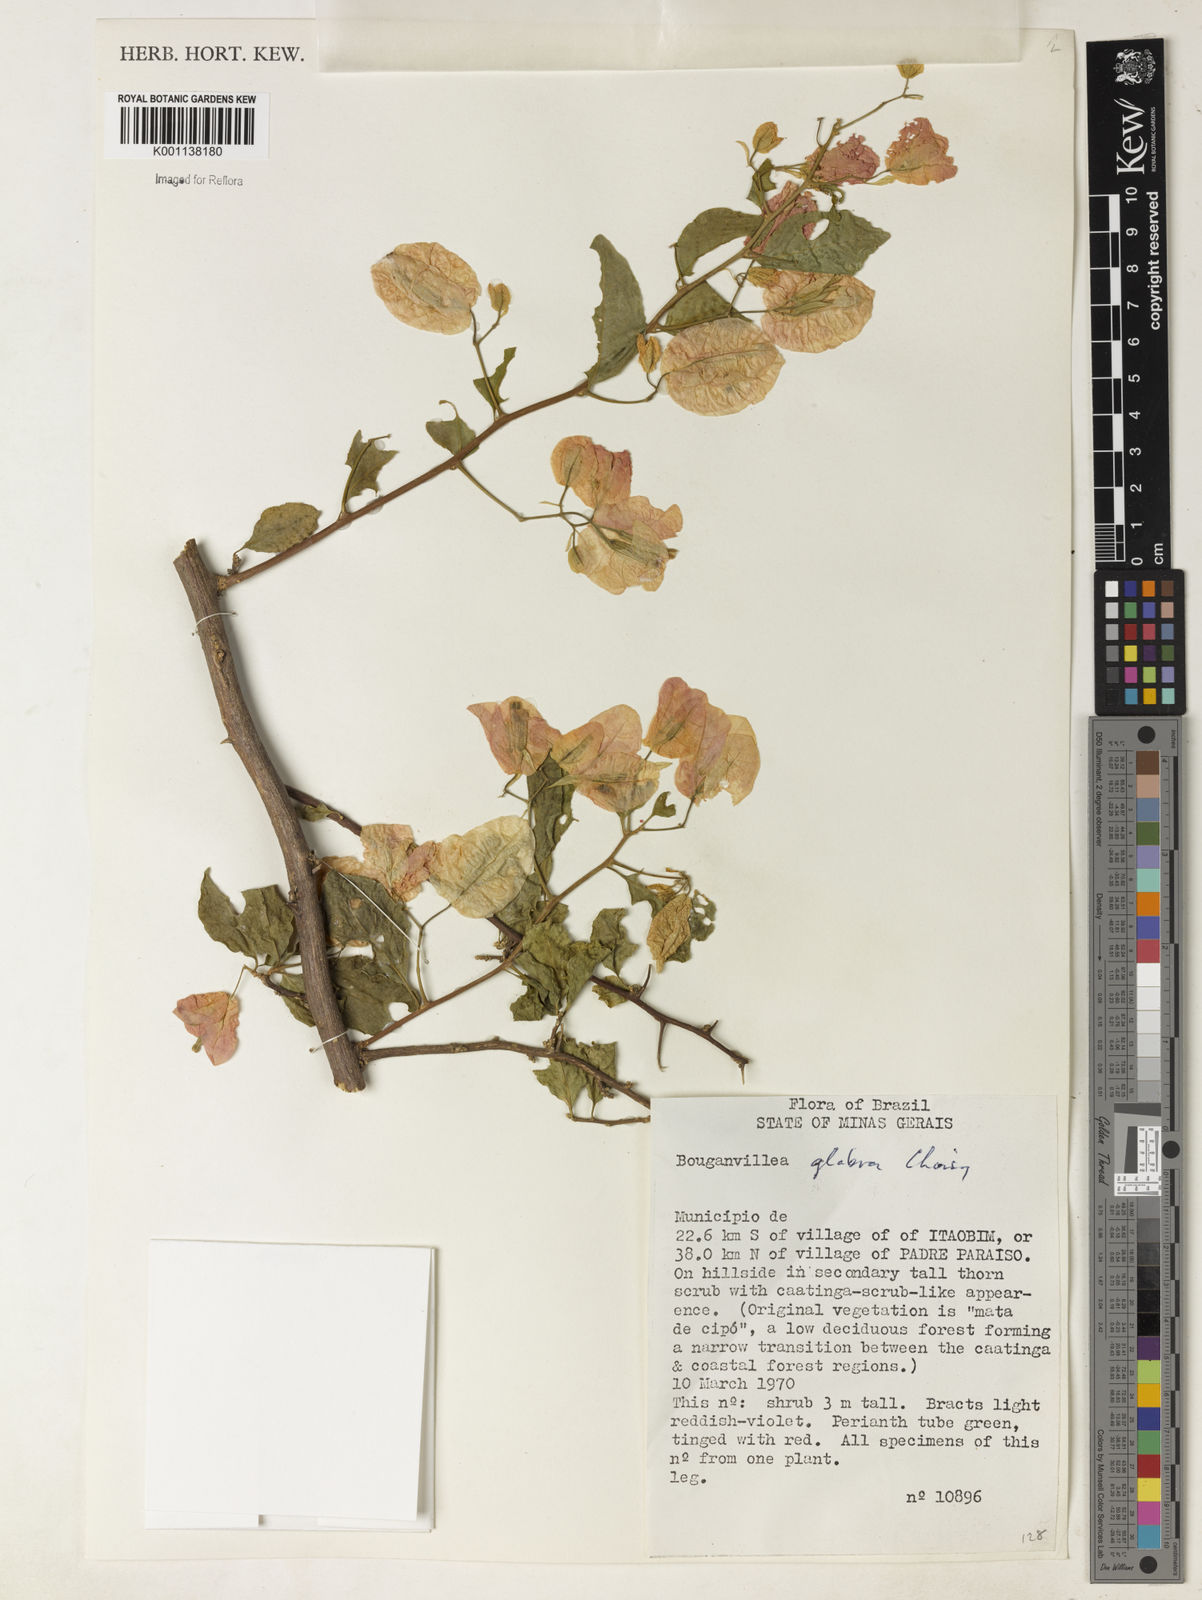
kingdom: Plantae
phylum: Tracheophyta
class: Magnoliopsida
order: Caryophyllales
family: Nyctaginaceae
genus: Bougainvillea
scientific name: Bougainvillea glabra
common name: Paperflower
